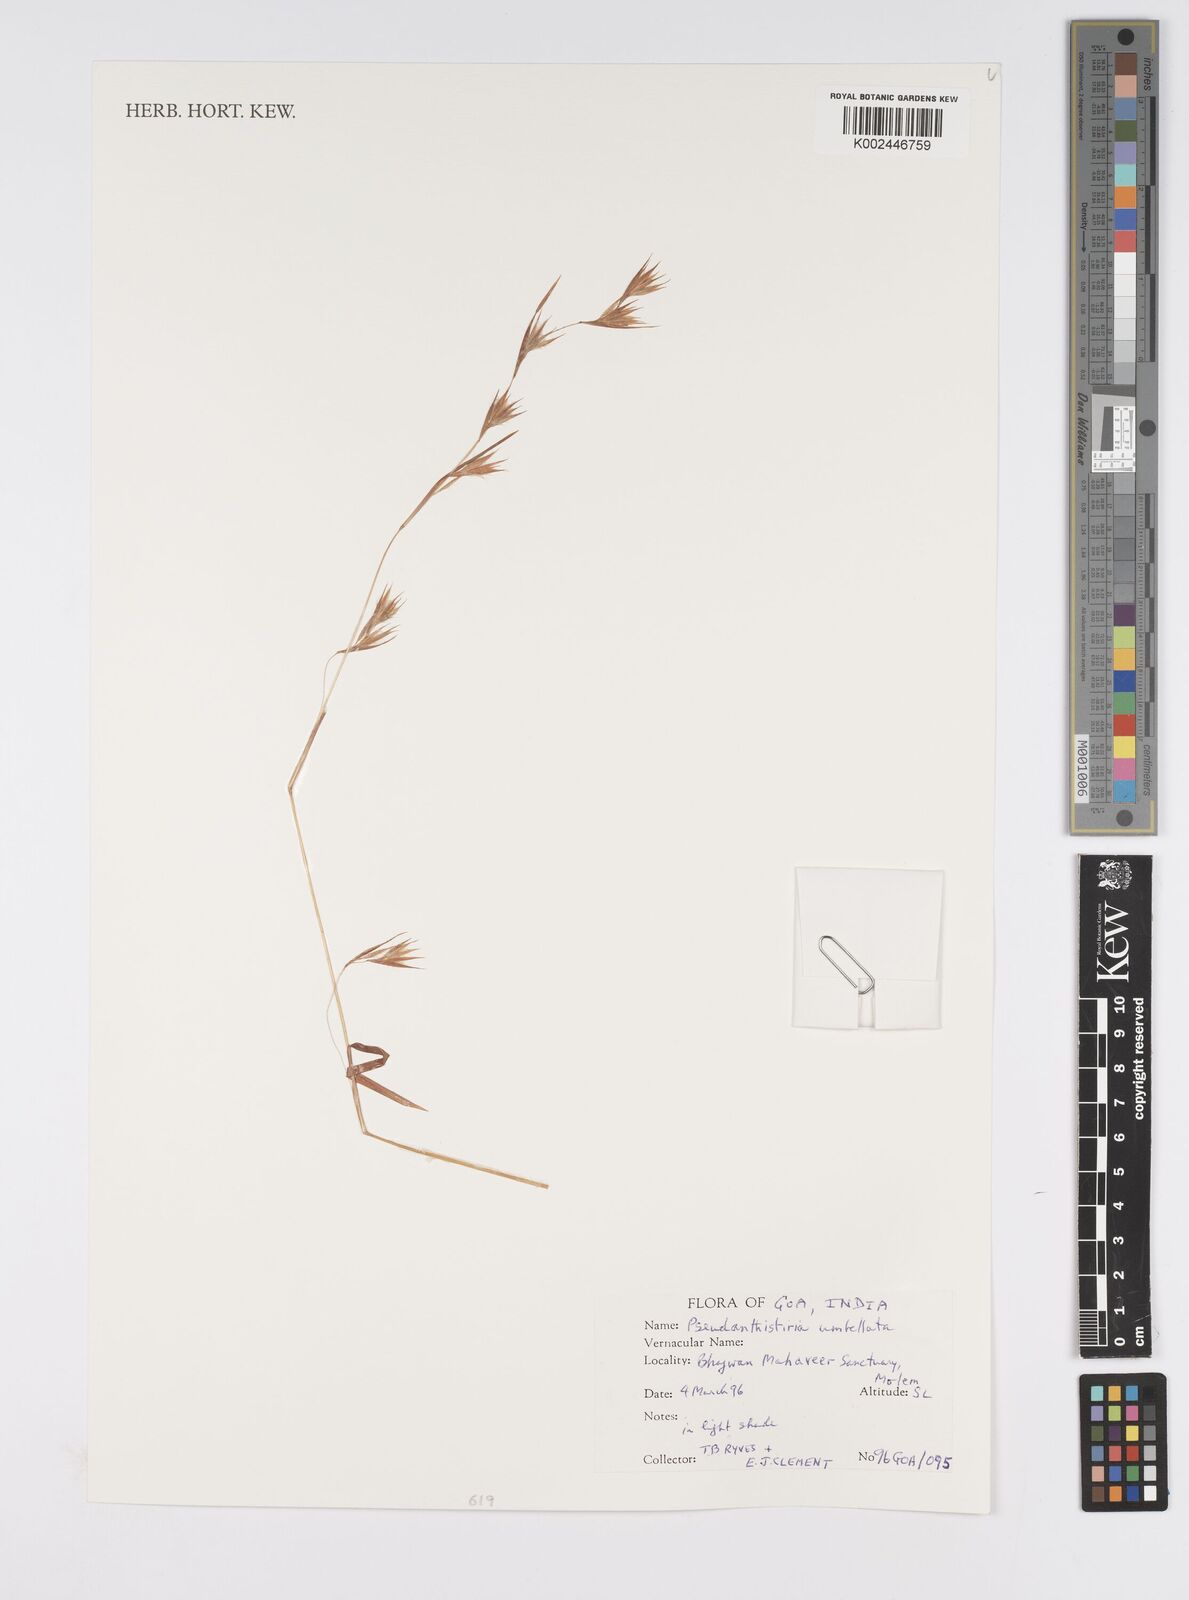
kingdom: Plantae
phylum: Tracheophyta
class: Liliopsida
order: Poales
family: Poaceae
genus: Pseudanthistiria
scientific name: Pseudanthistiria umbellata
